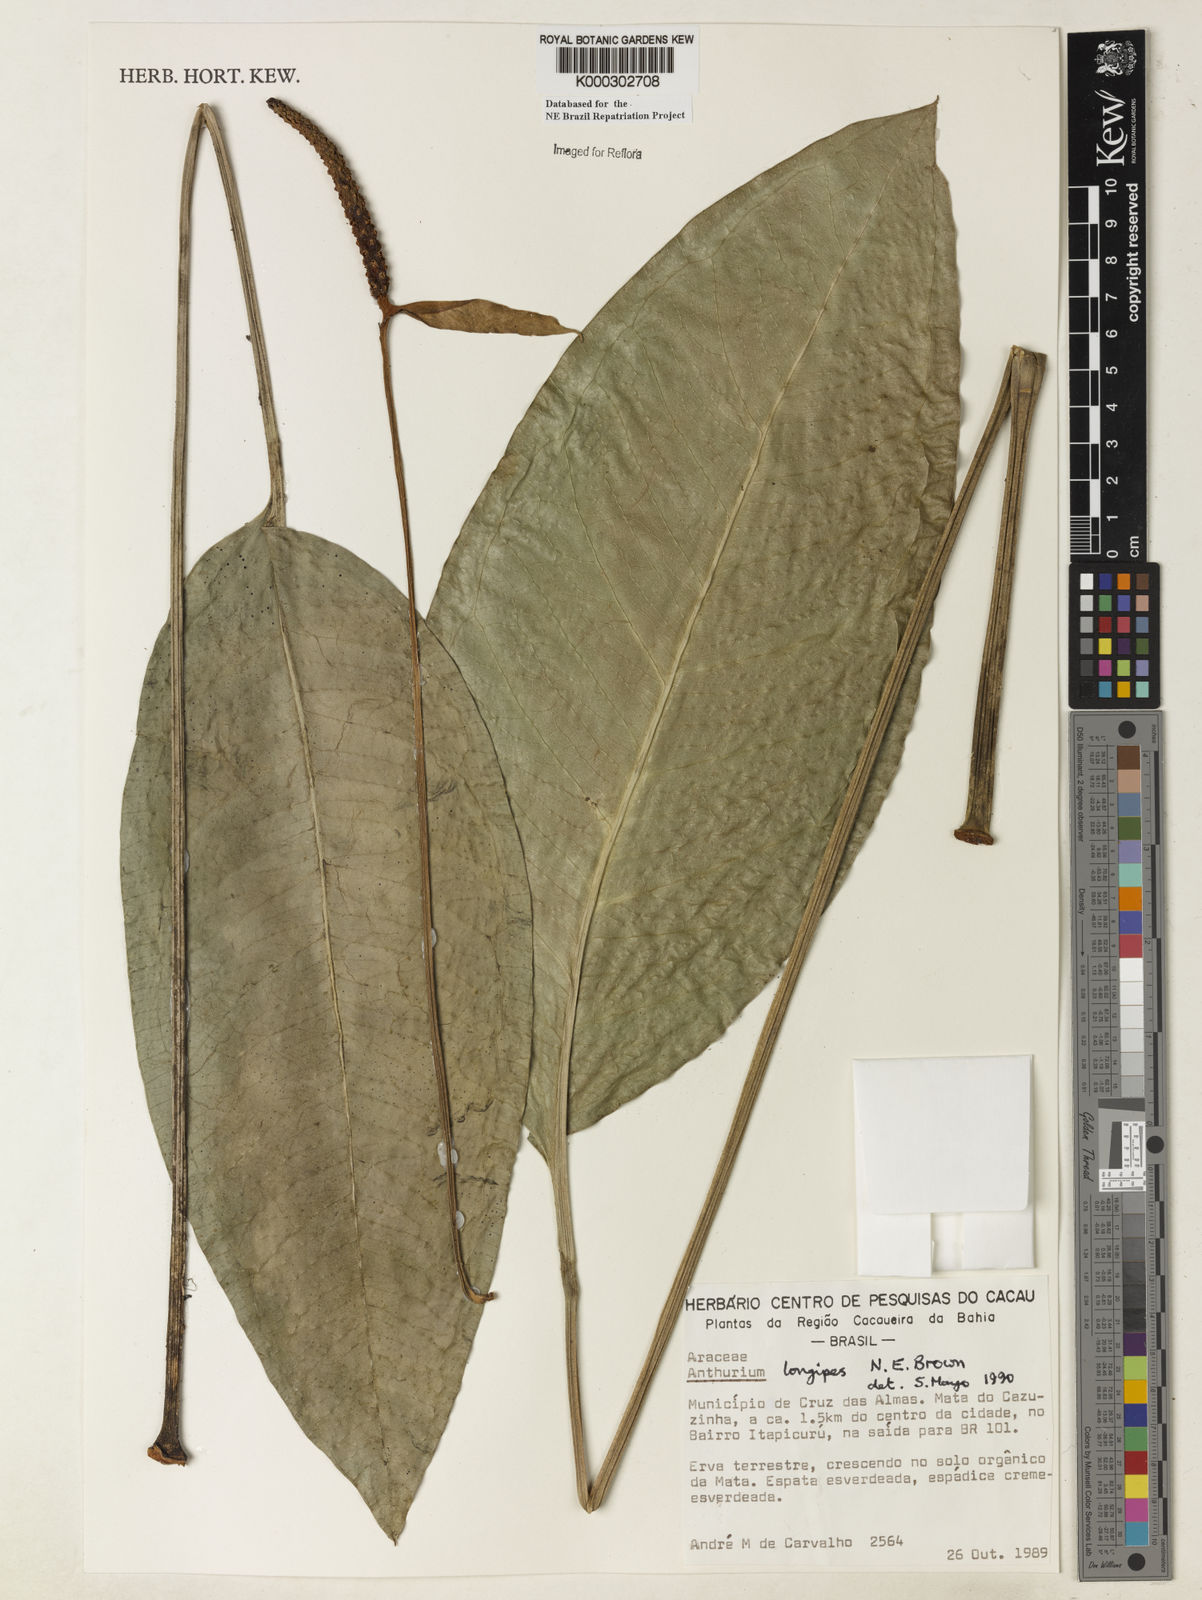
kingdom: Plantae
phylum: Tracheophyta
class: Liliopsida
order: Alismatales
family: Araceae
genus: Anthurium
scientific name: Anthurium longipes
